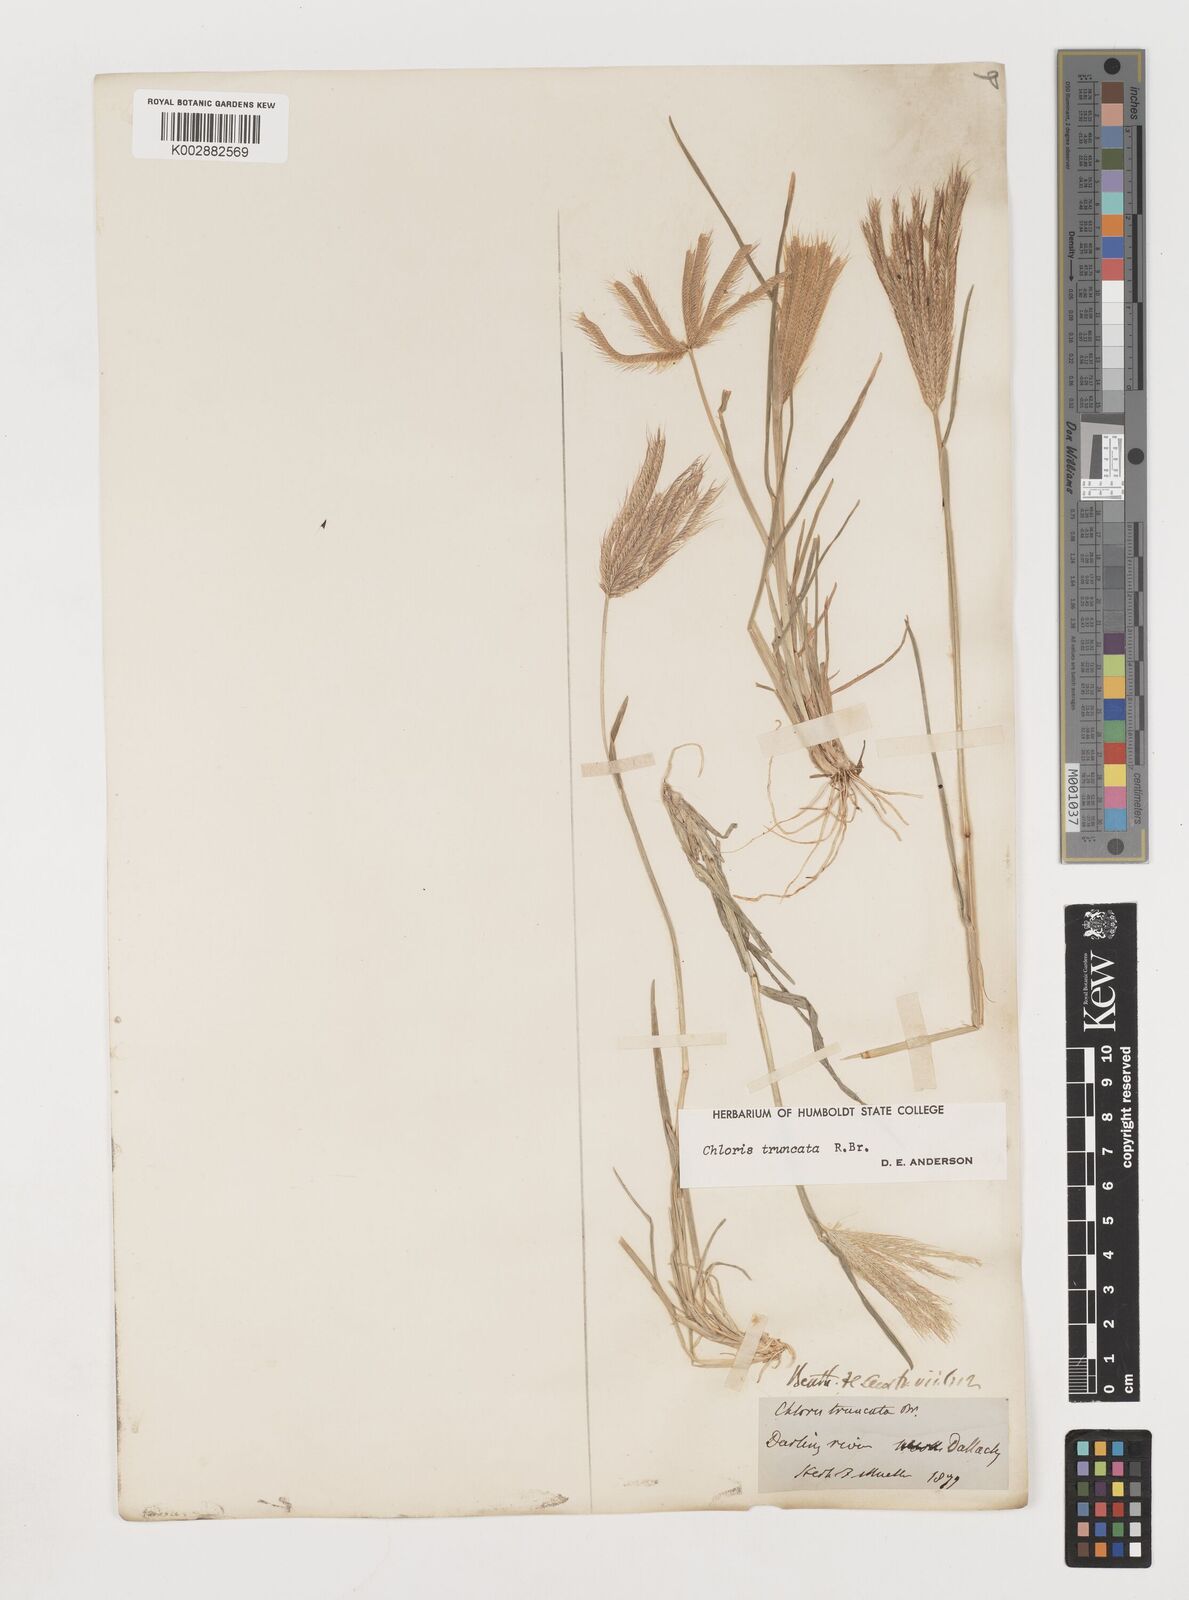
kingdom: Plantae
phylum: Tracheophyta
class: Liliopsida
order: Poales
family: Poaceae
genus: Chloris
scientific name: Chloris truncata
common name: Windmill-grass
